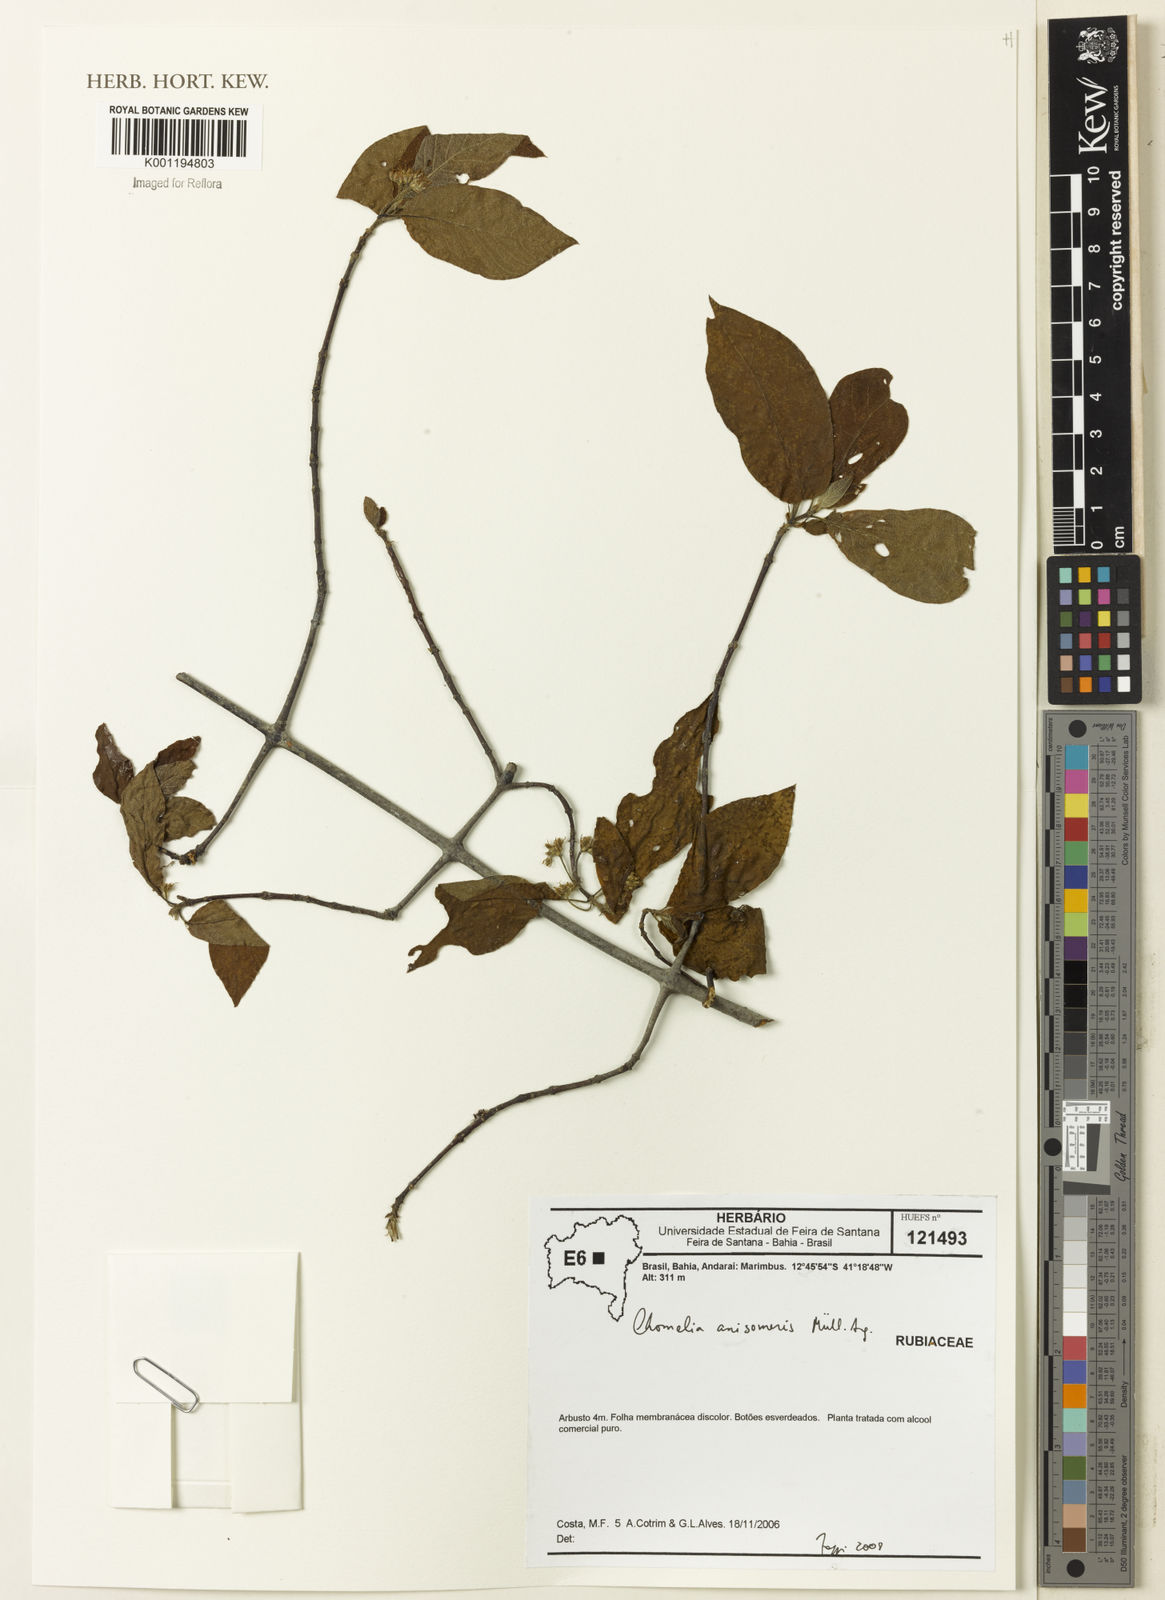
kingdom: Plantae
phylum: Tracheophyta
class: Magnoliopsida
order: Gentianales
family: Rubiaceae
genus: Chomelia
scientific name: Chomelia
